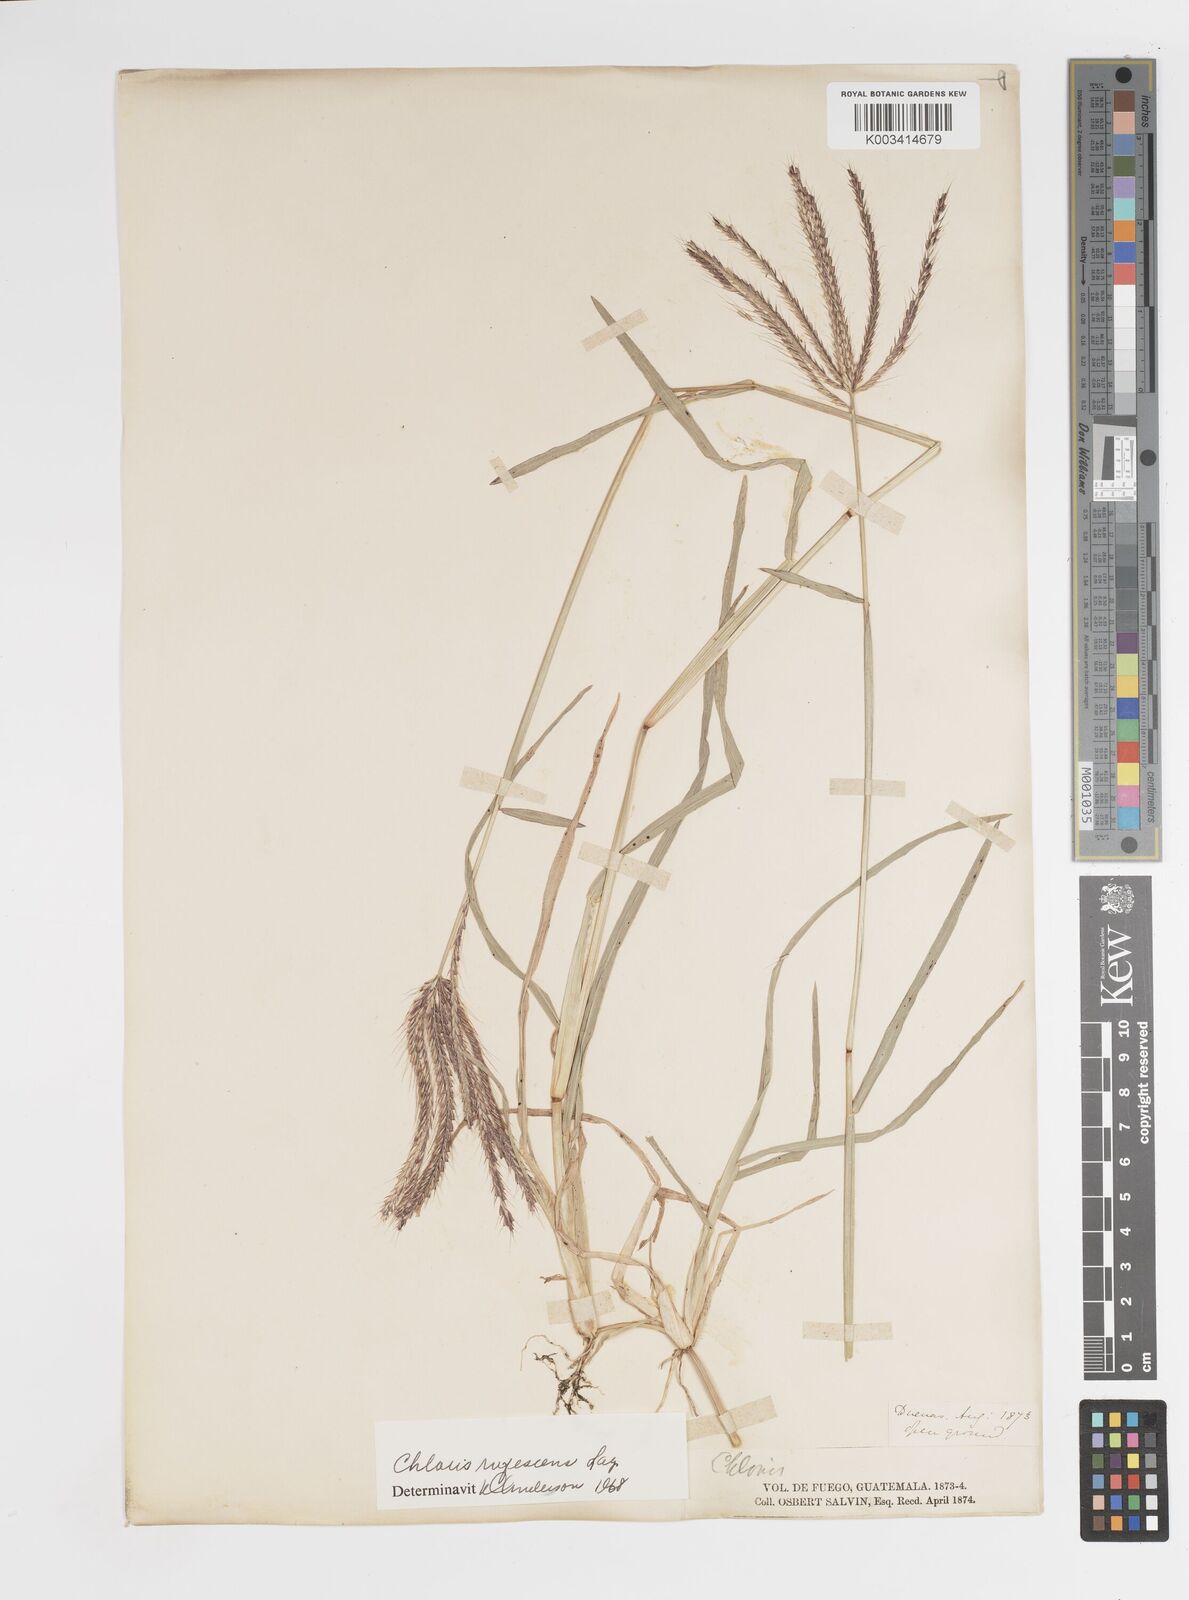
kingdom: Plantae
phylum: Tracheophyta
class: Liliopsida
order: Poales
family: Poaceae
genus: Chloris
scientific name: Chloris rufescens
